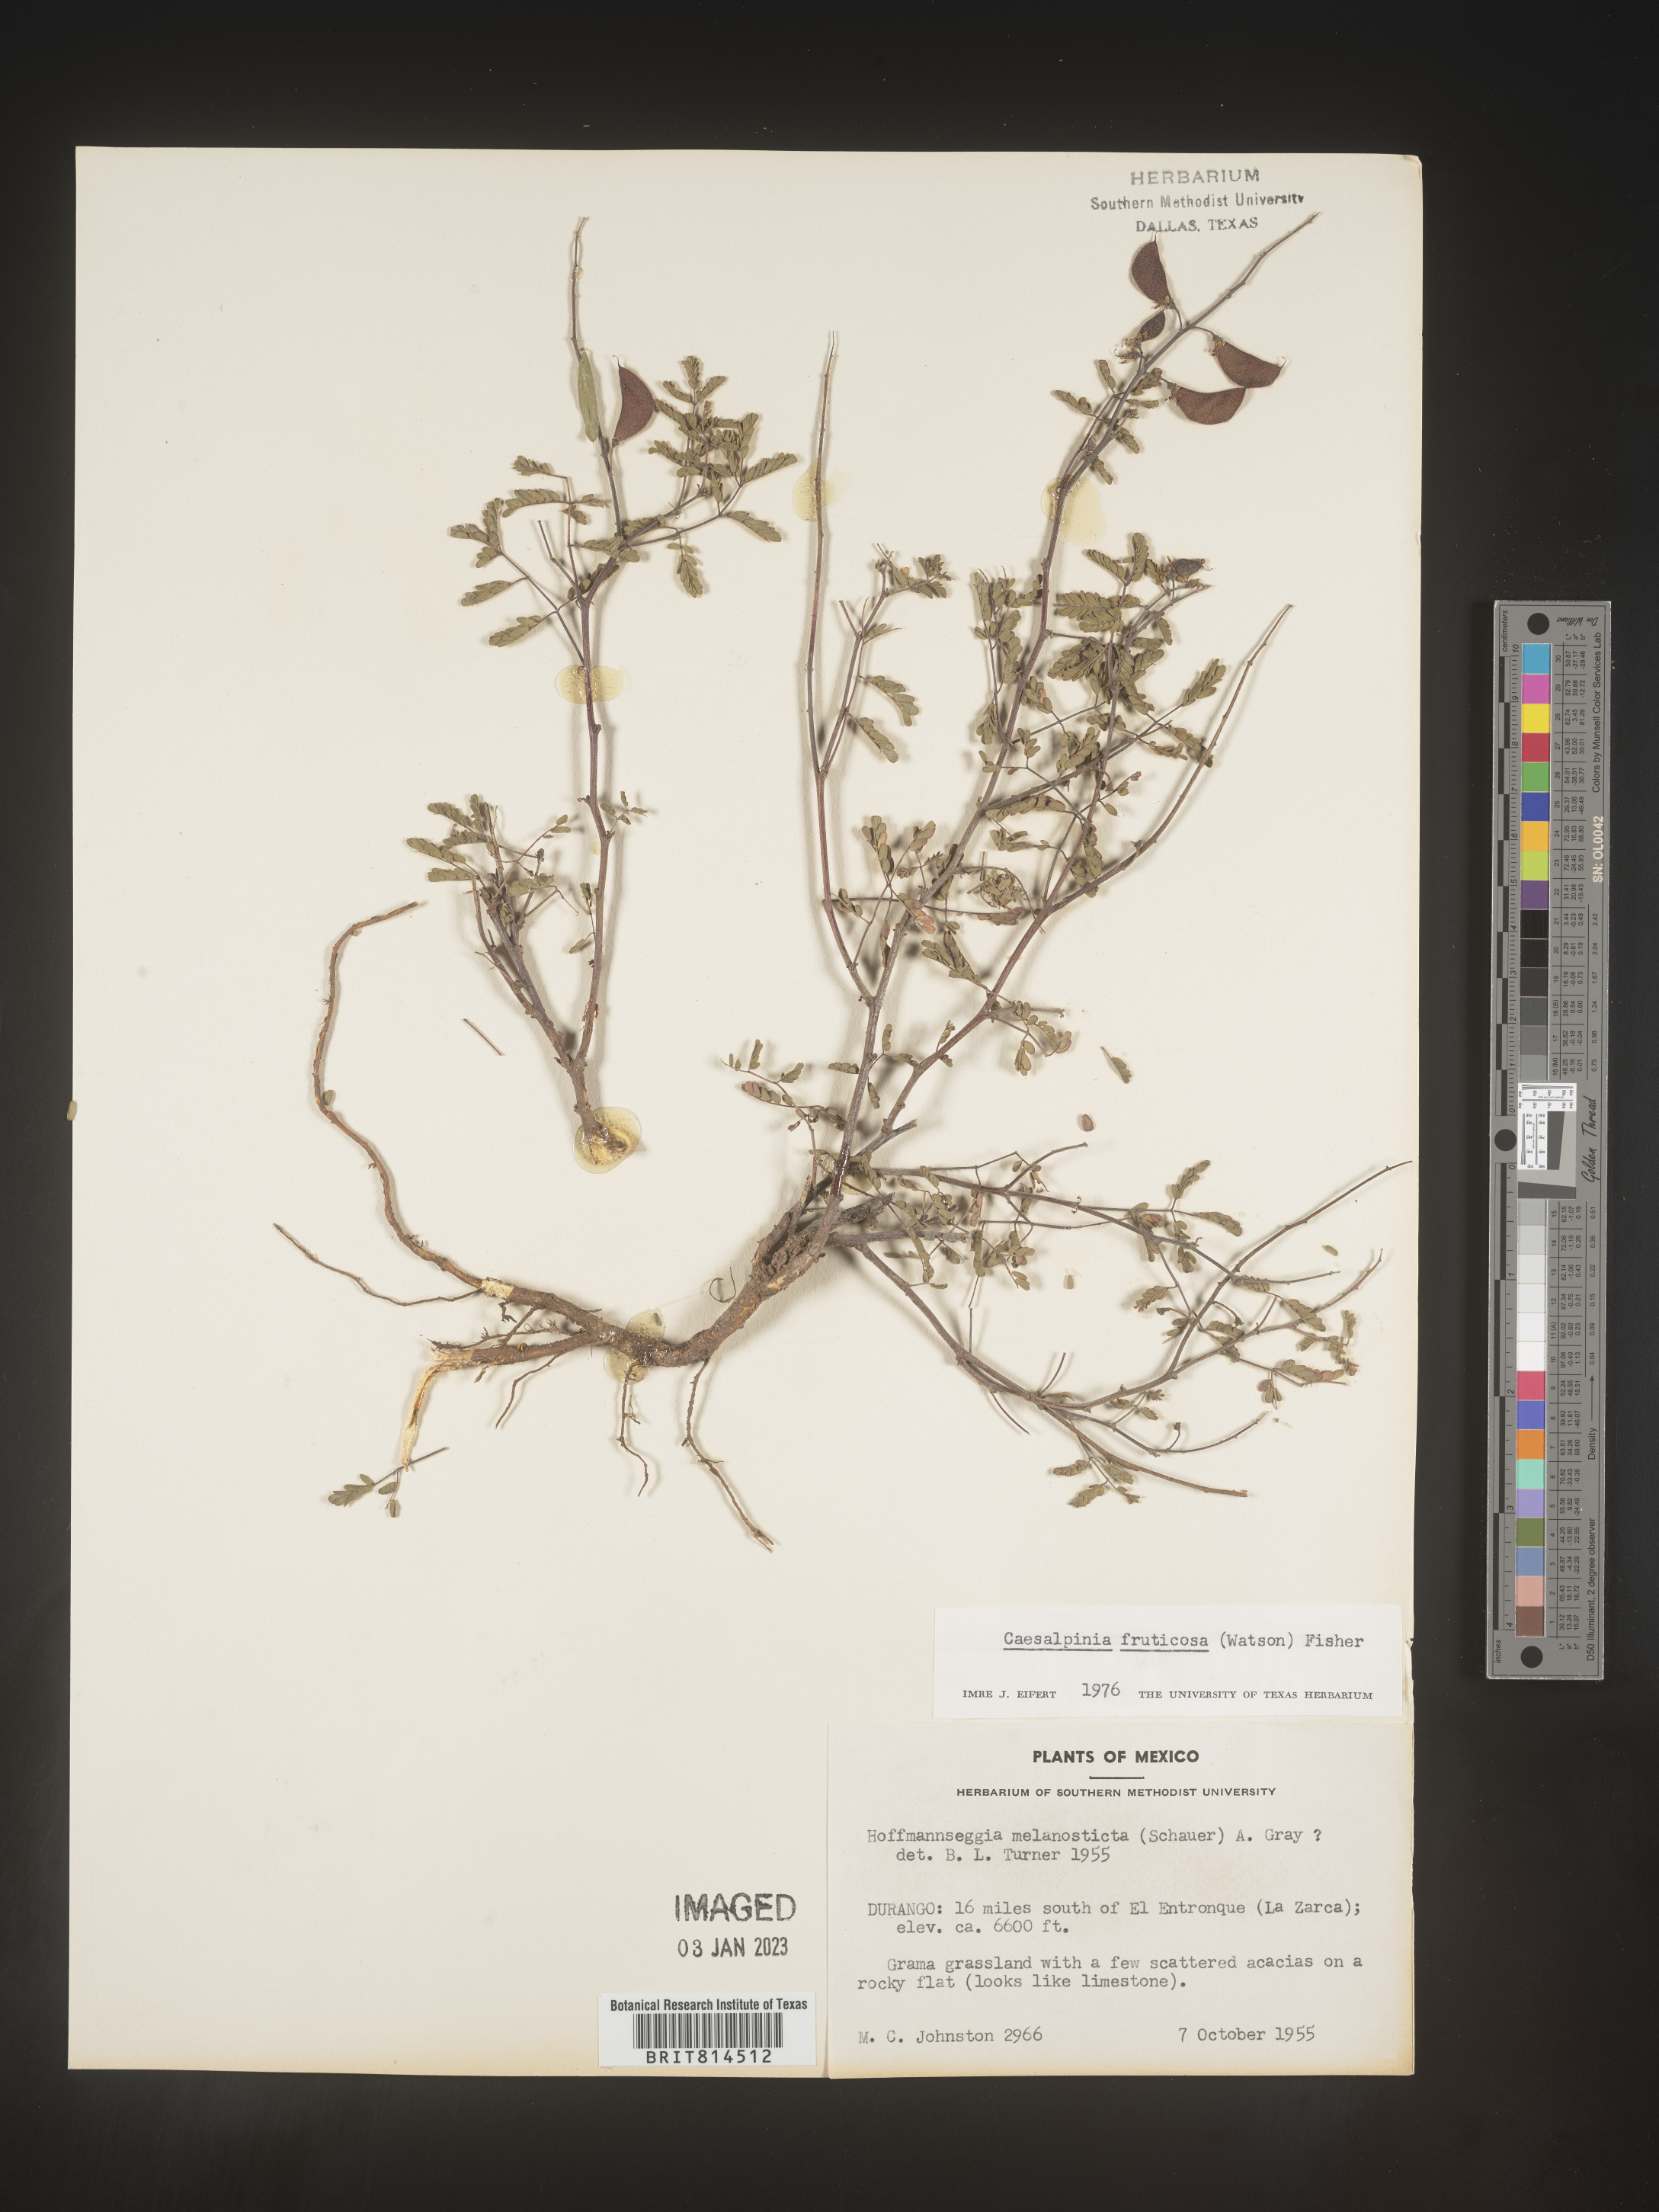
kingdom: Plantae
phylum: Tracheophyta
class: Magnoliopsida
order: Fabales
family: Fabaceae
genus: Caesalpinia
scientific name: Caesalpinia
